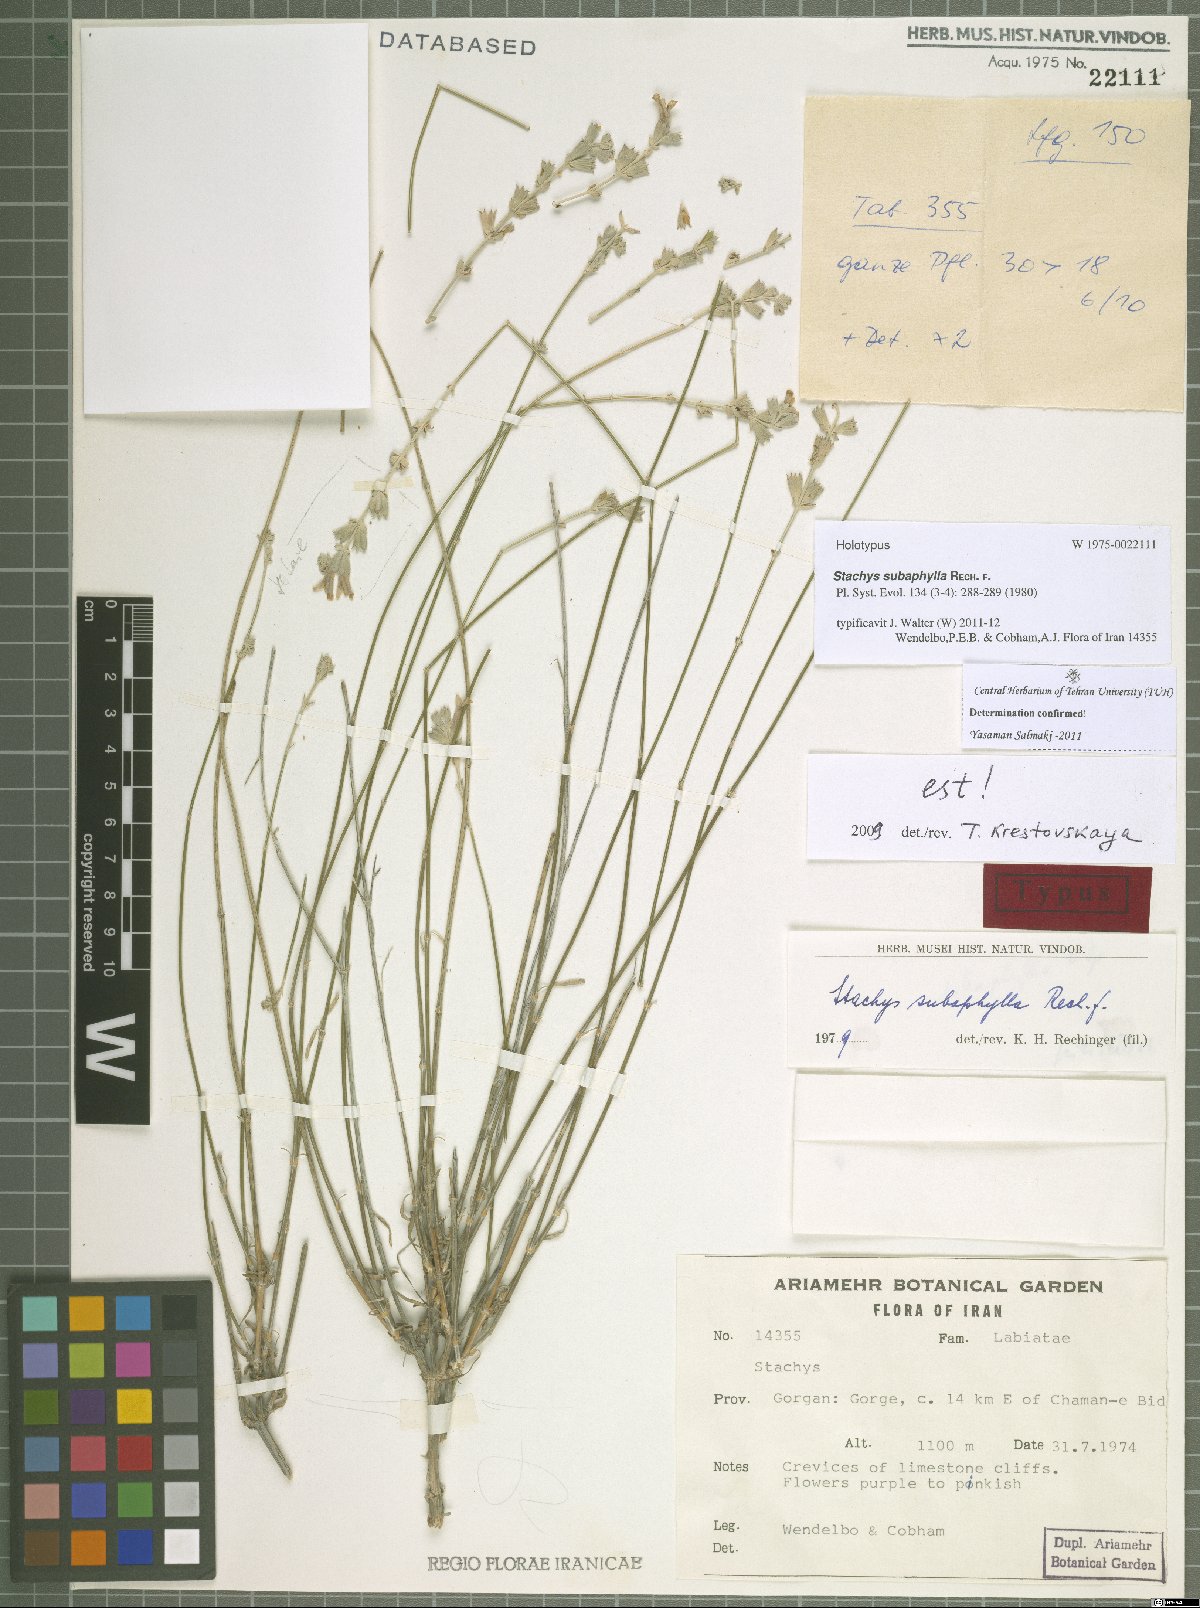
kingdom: Plantae
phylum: Tracheophyta
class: Magnoliopsida
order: Lamiales
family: Lamiaceae
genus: Stachys
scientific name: Stachys subaphylla
